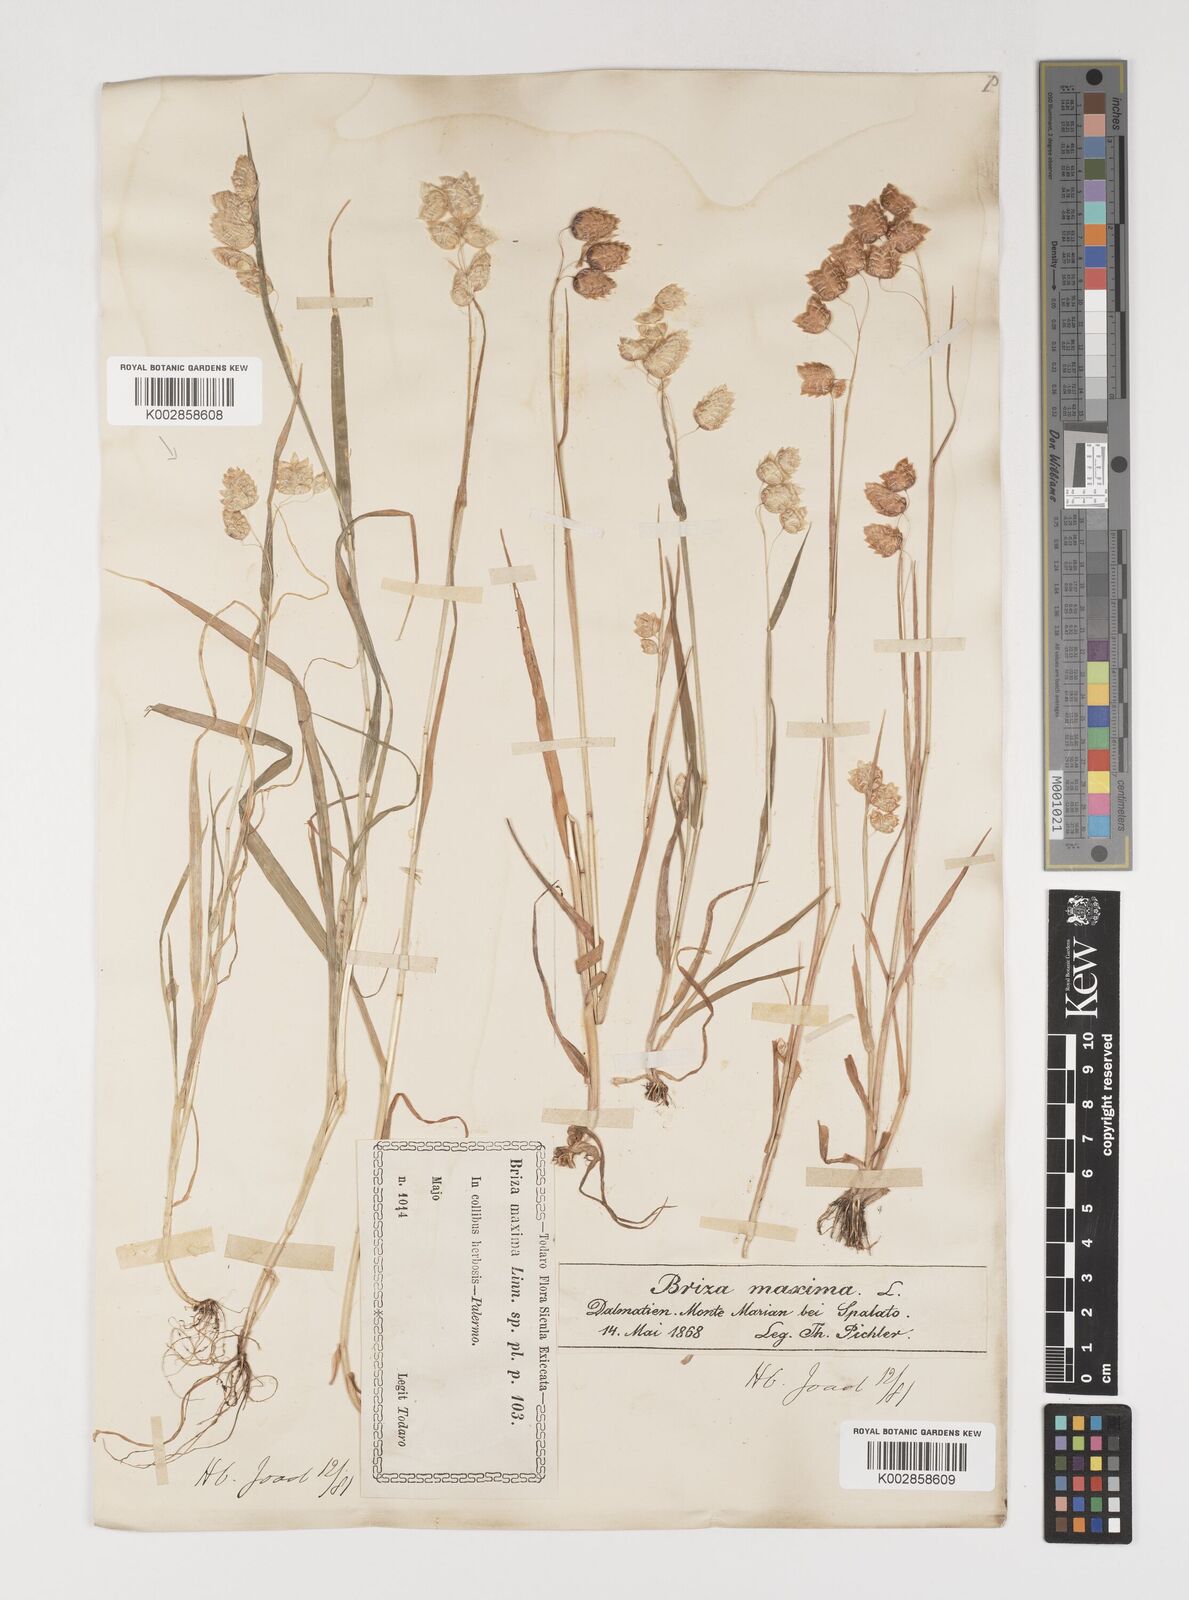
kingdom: Plantae
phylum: Tracheophyta
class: Liliopsida
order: Poales
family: Poaceae
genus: Briza
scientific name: Briza maxima
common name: Big quakinggrass
